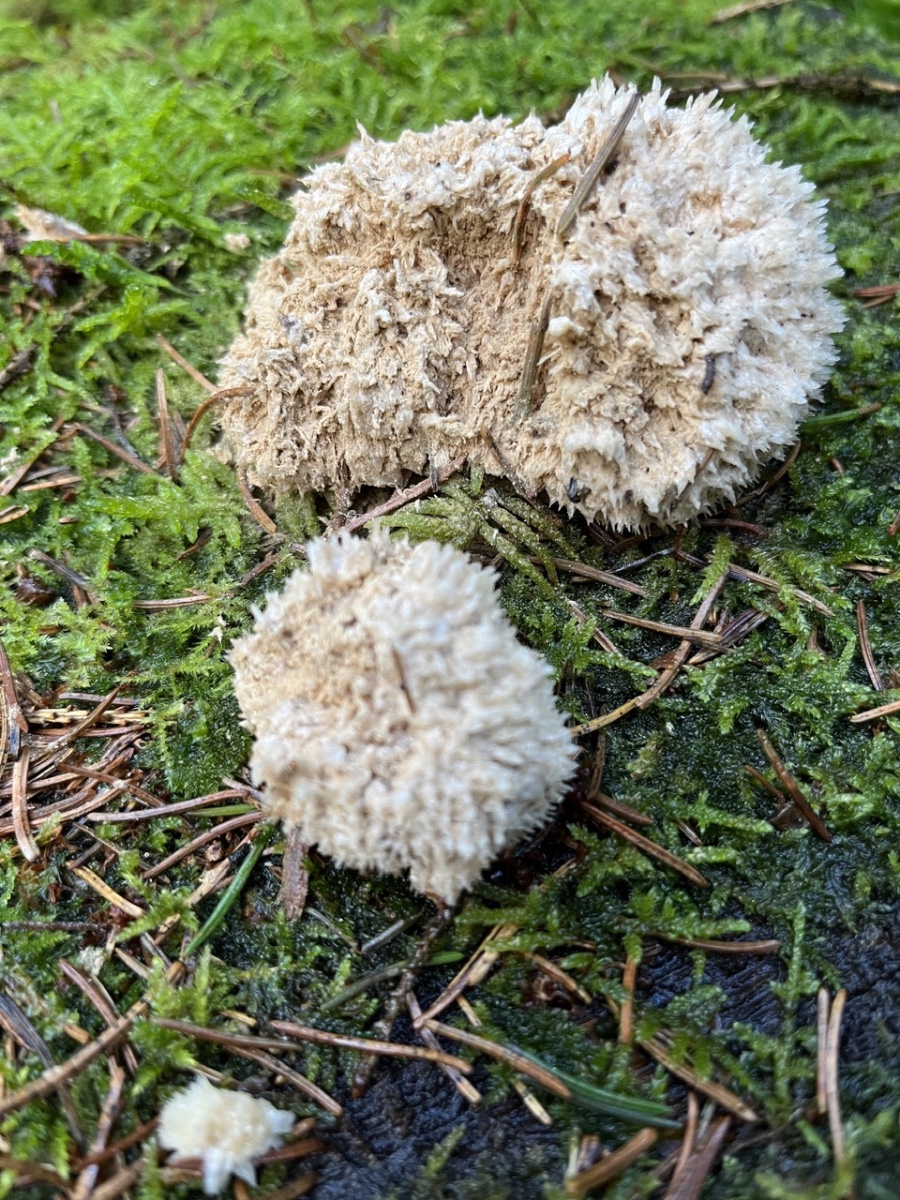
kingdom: Fungi
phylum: Basidiomycota
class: Agaricomycetes
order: Polyporales
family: Dacryobolaceae
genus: Postia
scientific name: Postia ptychogaster
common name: støvende kødporesvamp
